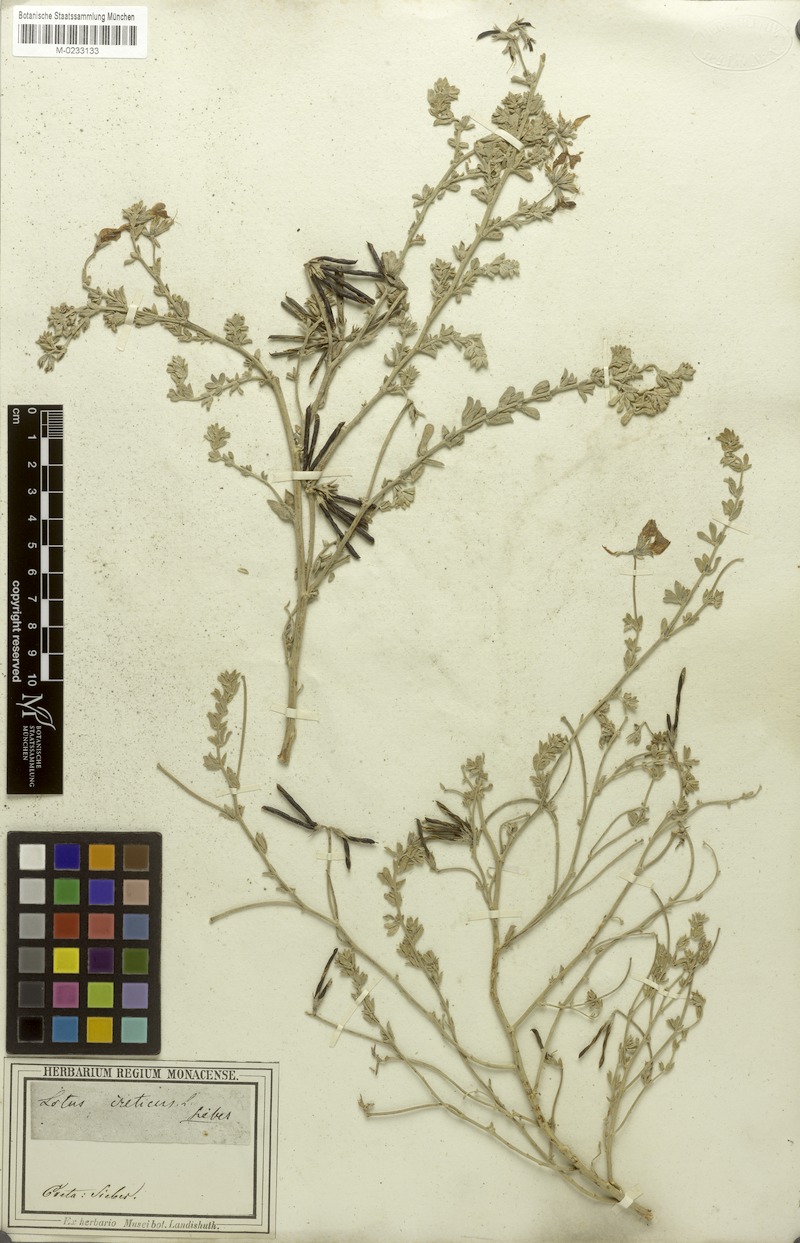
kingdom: Plantae
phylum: Tracheophyta
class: Magnoliopsida
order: Fabales
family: Fabaceae
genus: Lotus
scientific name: Lotus creticus
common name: Cretan bird's-foot trefoil
